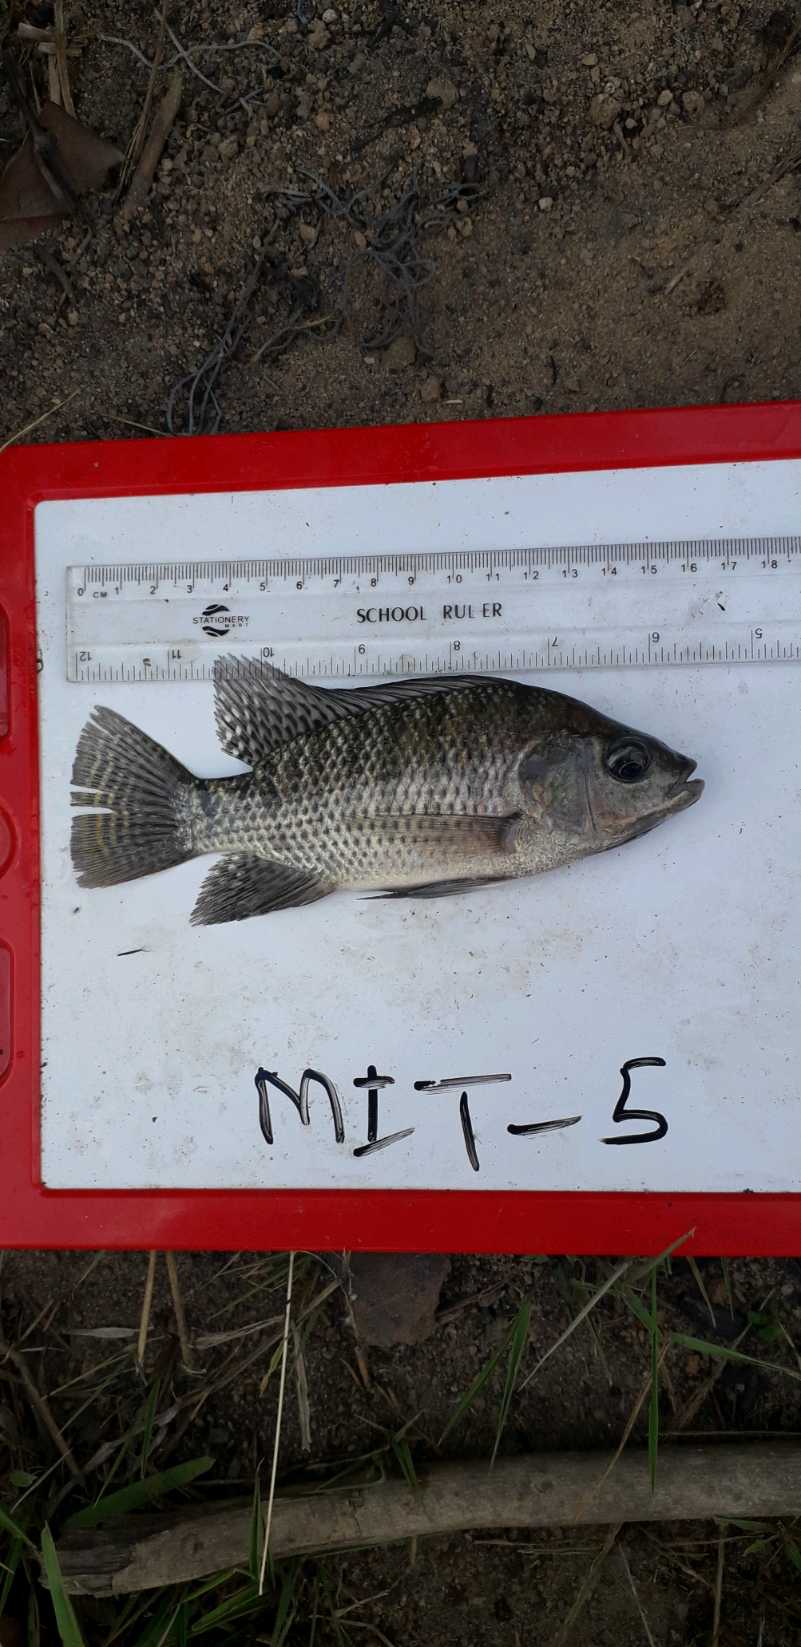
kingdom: Animalia
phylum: Chordata
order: Perciformes
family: Cichlidae
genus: Oreochromis
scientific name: Oreochromis niloticus
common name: Nile tilapia
